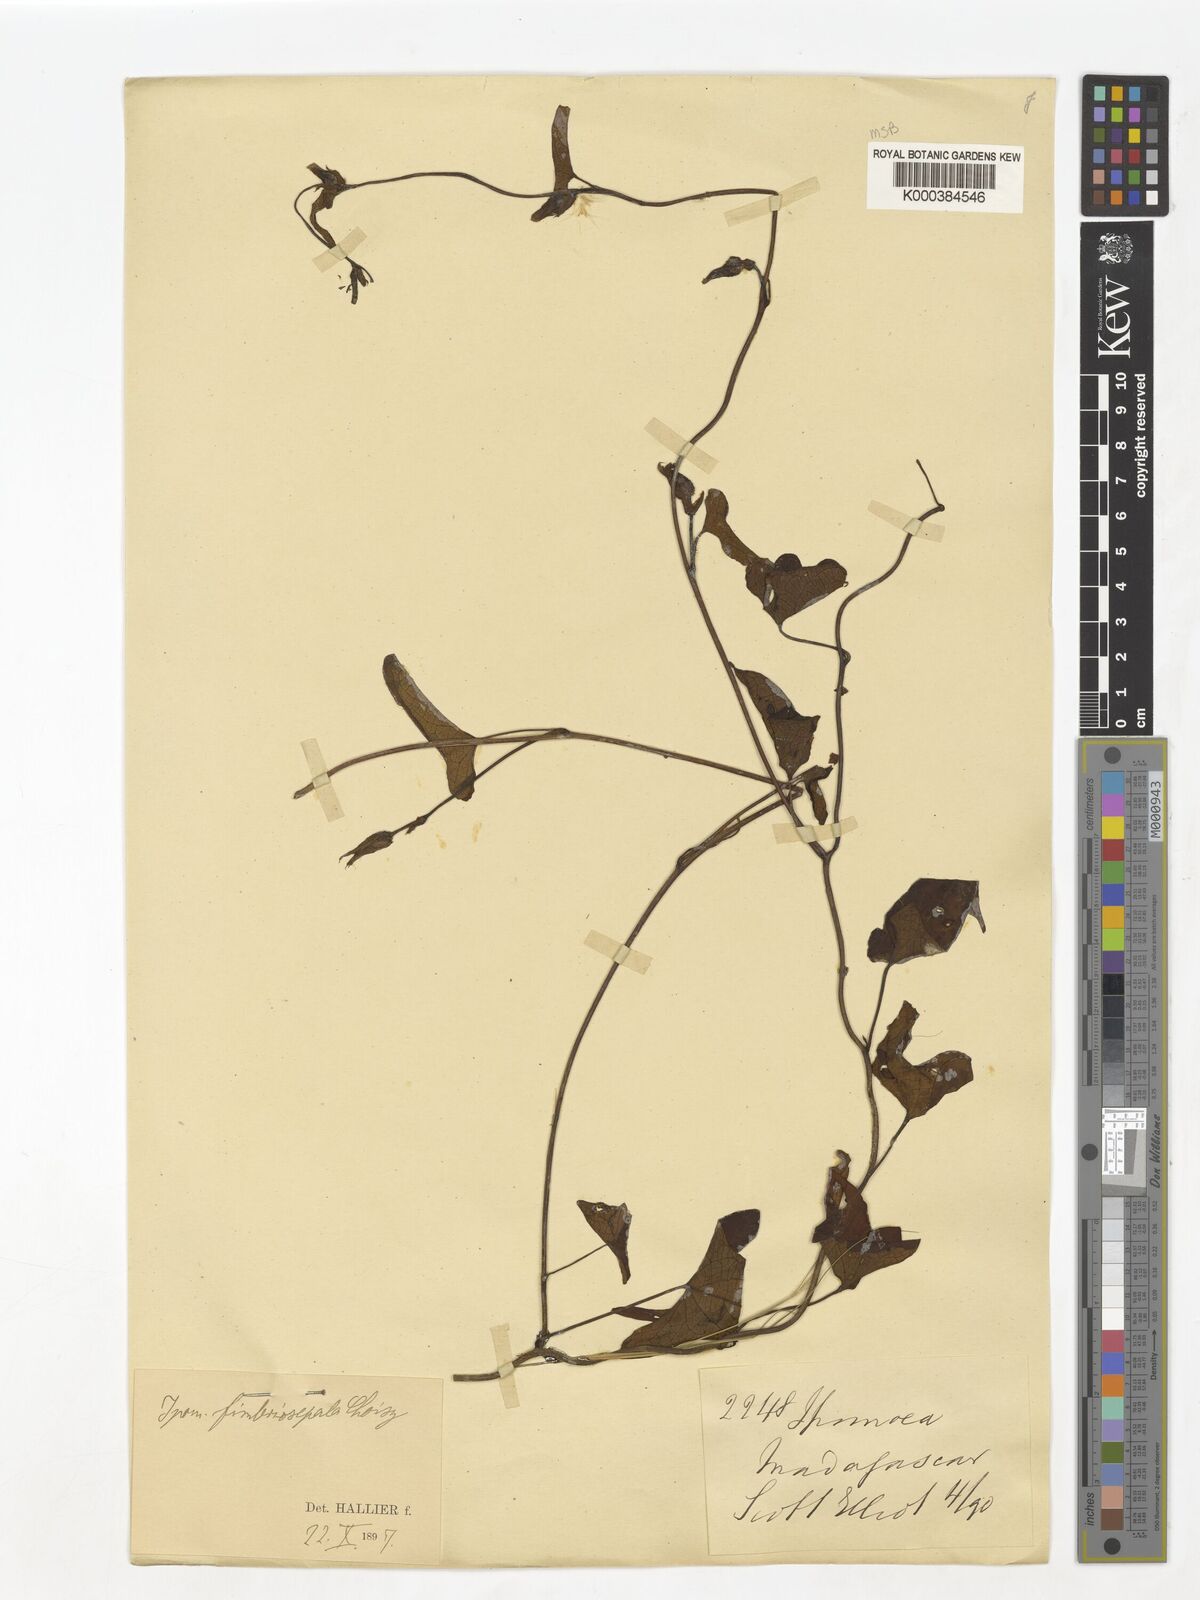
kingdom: Plantae
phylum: Tracheophyta
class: Magnoliopsida
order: Solanales
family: Convolvulaceae
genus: Ipomoea
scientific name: Ipomoea fimbriosepala
